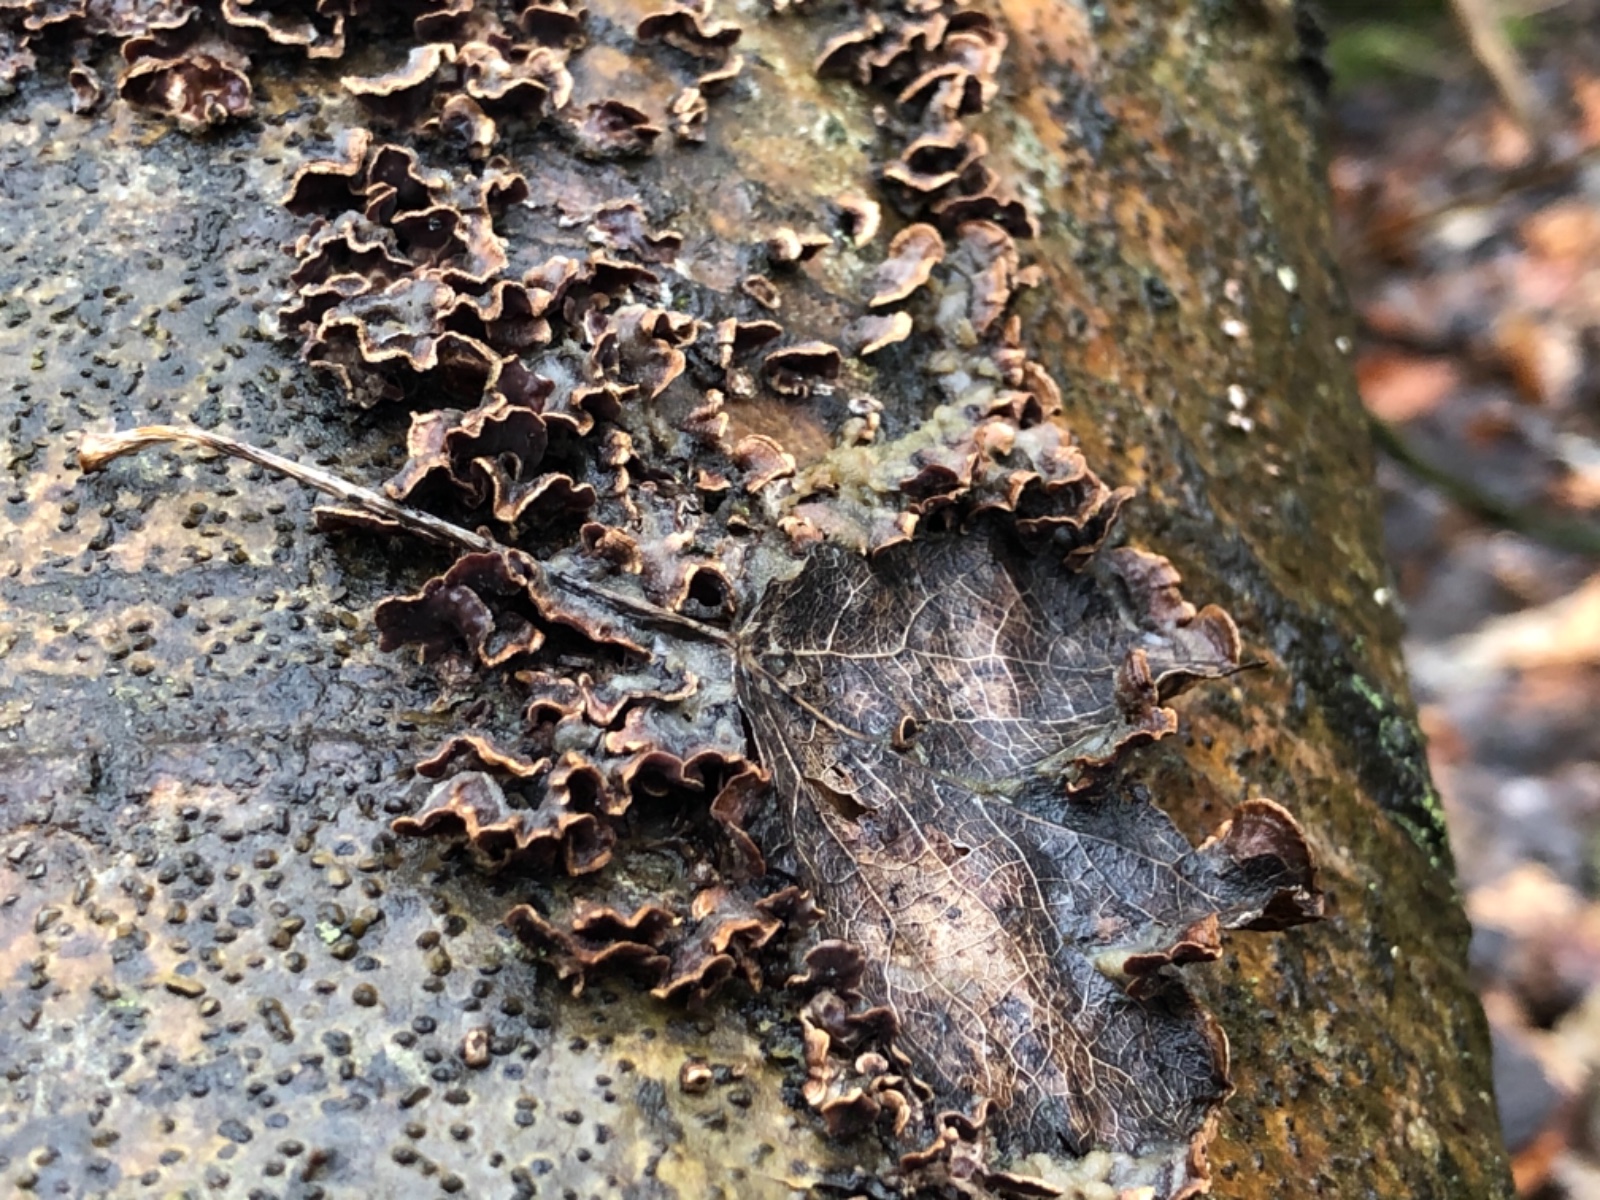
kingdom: Fungi
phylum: Basidiomycota
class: Agaricomycetes
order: Agaricales
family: Cyphellaceae
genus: Chondrostereum
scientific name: Chondrostereum purpureum
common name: purpurlædersvamp
